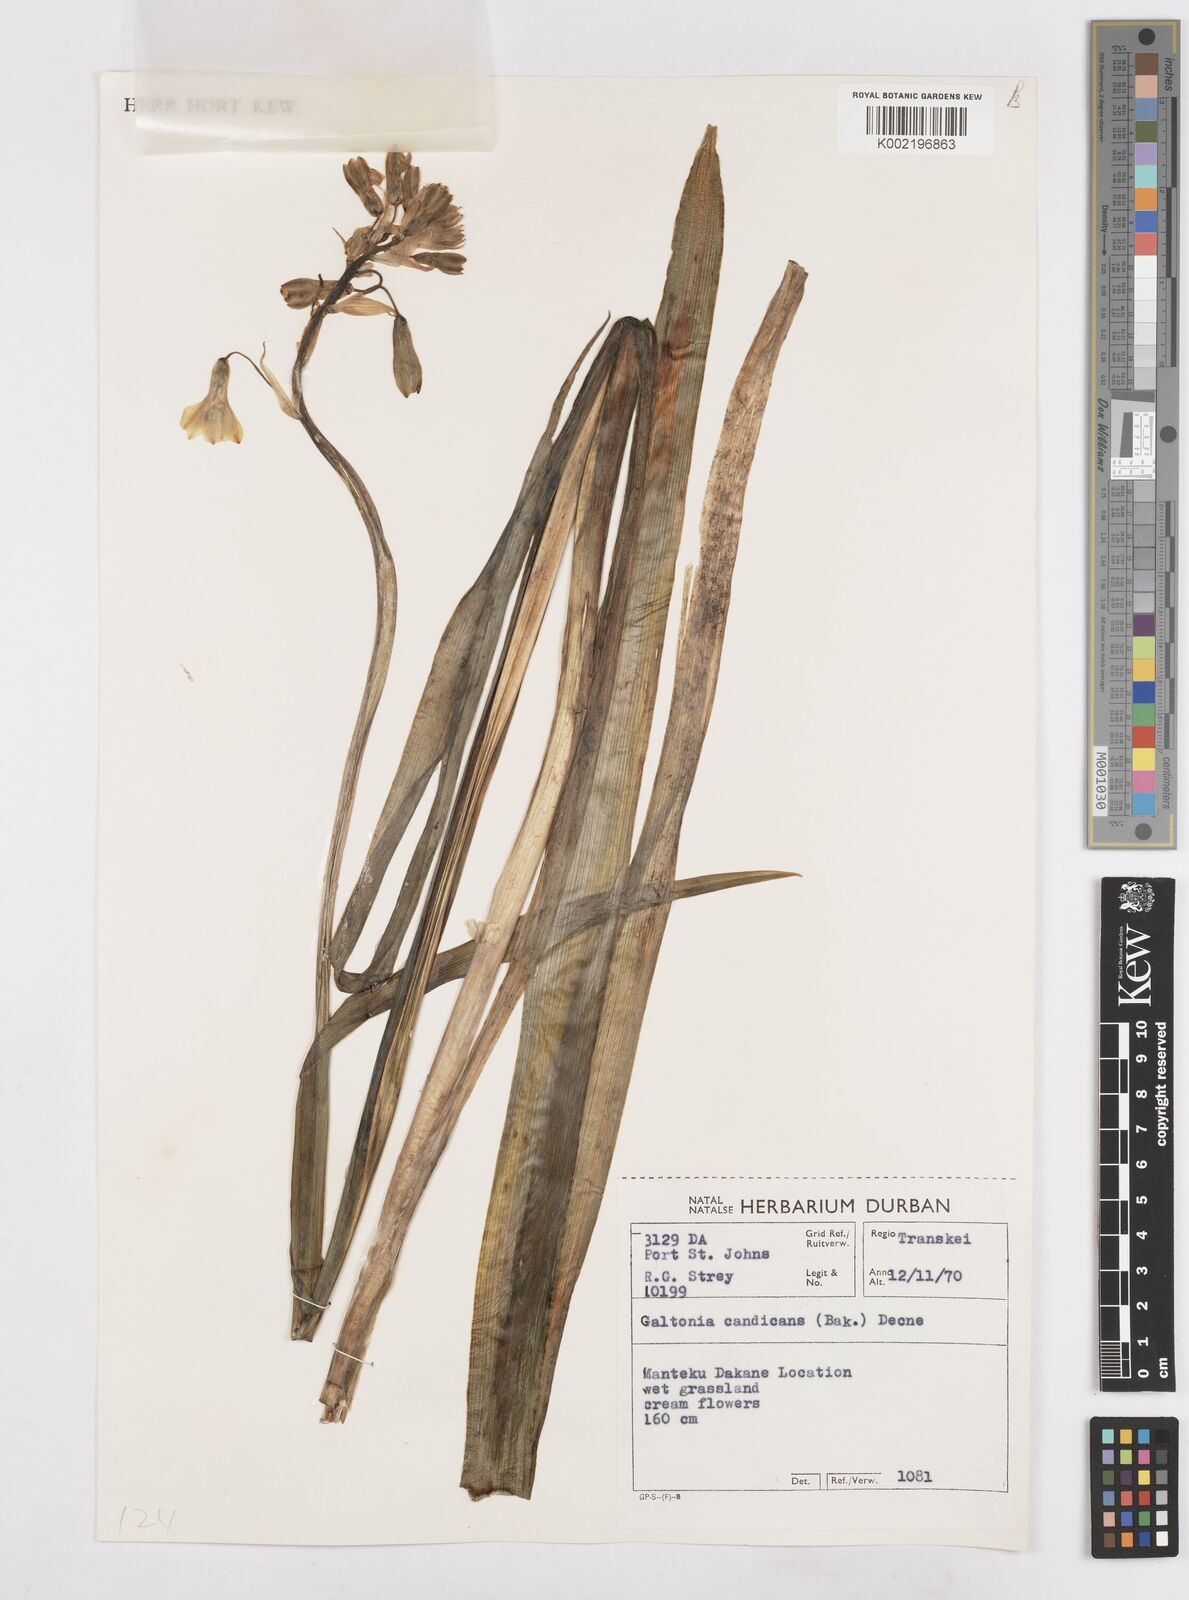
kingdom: Plantae
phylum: Tracheophyta
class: Liliopsida
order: Asparagales
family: Asparagaceae
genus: Ornithogalum
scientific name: Ornithogalum princeps
